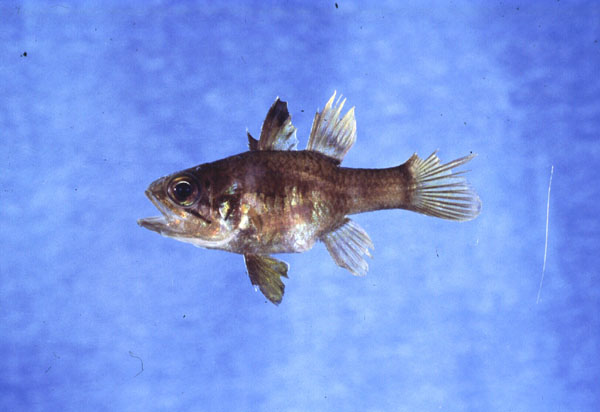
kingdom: Animalia
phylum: Chordata
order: Perciformes
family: Apogonidae
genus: Apogonichthyoides
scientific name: Apogonichthyoides timorensis
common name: Timor cardinal
